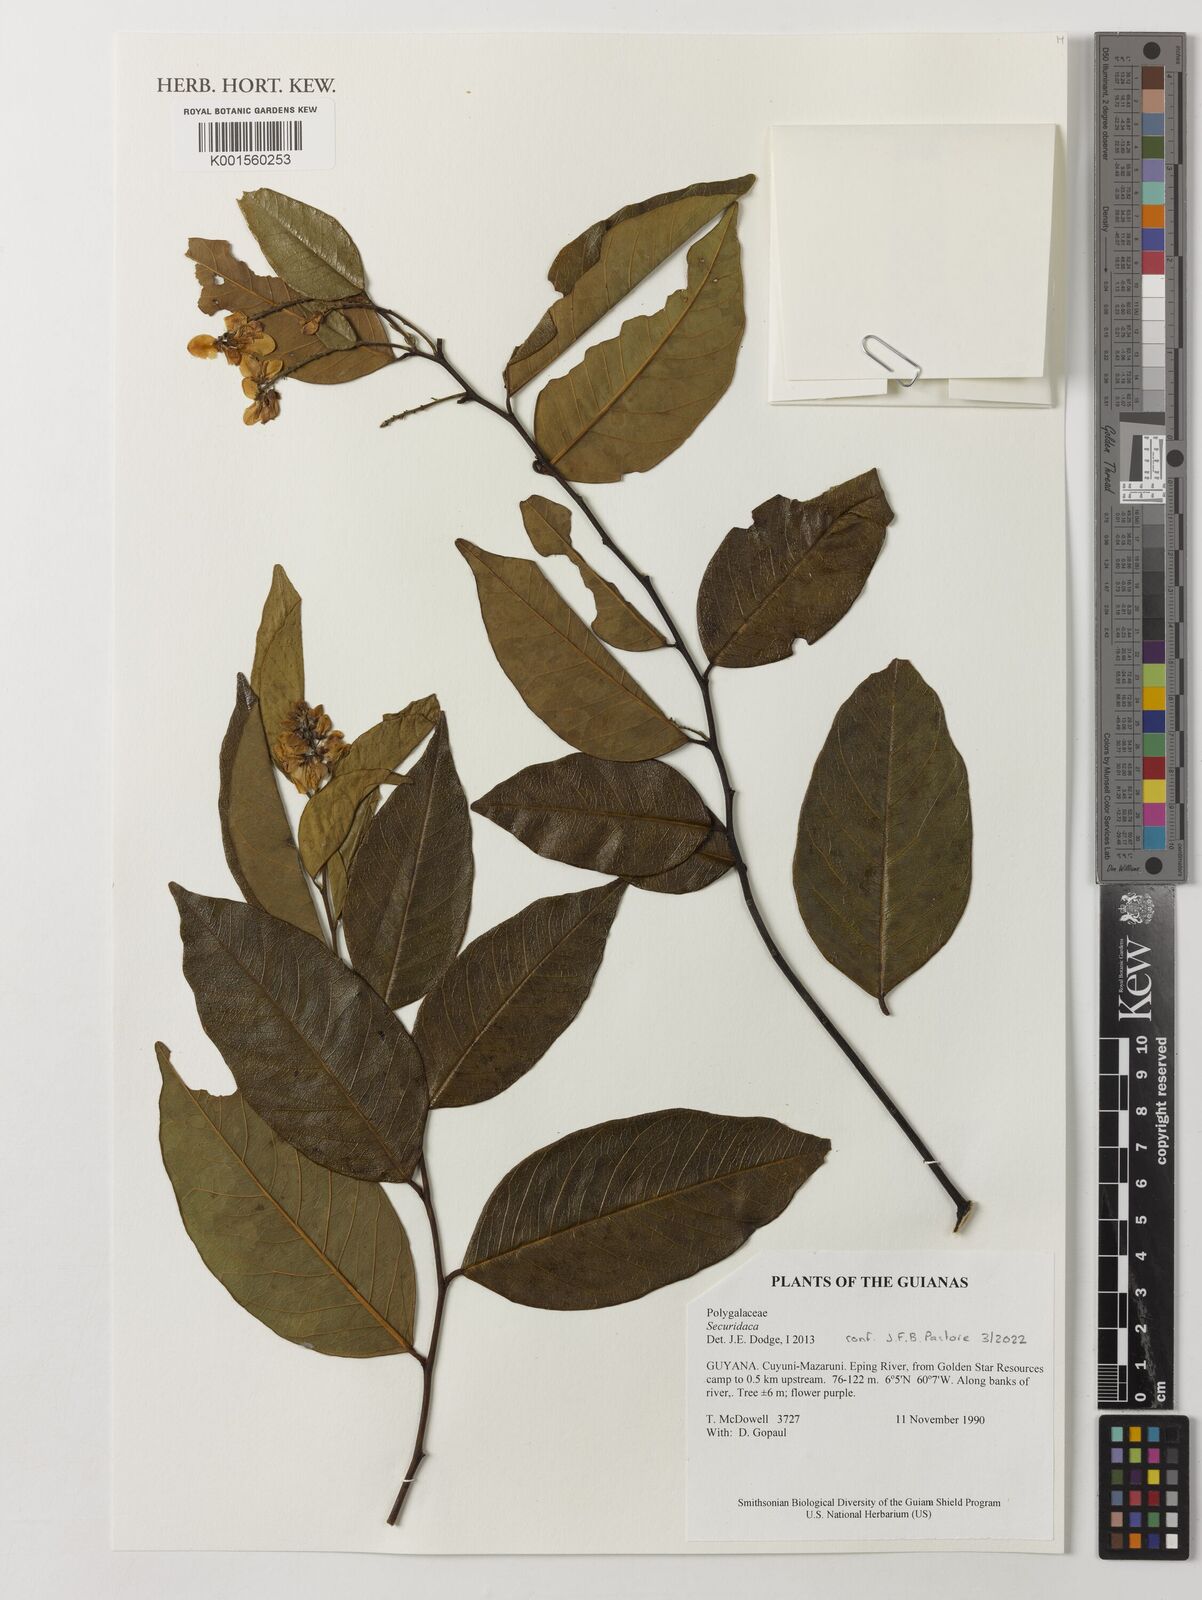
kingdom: Plantae
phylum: Tracheophyta
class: Magnoliopsida
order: Fabales
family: Polygalaceae
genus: Securidaca
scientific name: Securidaca
